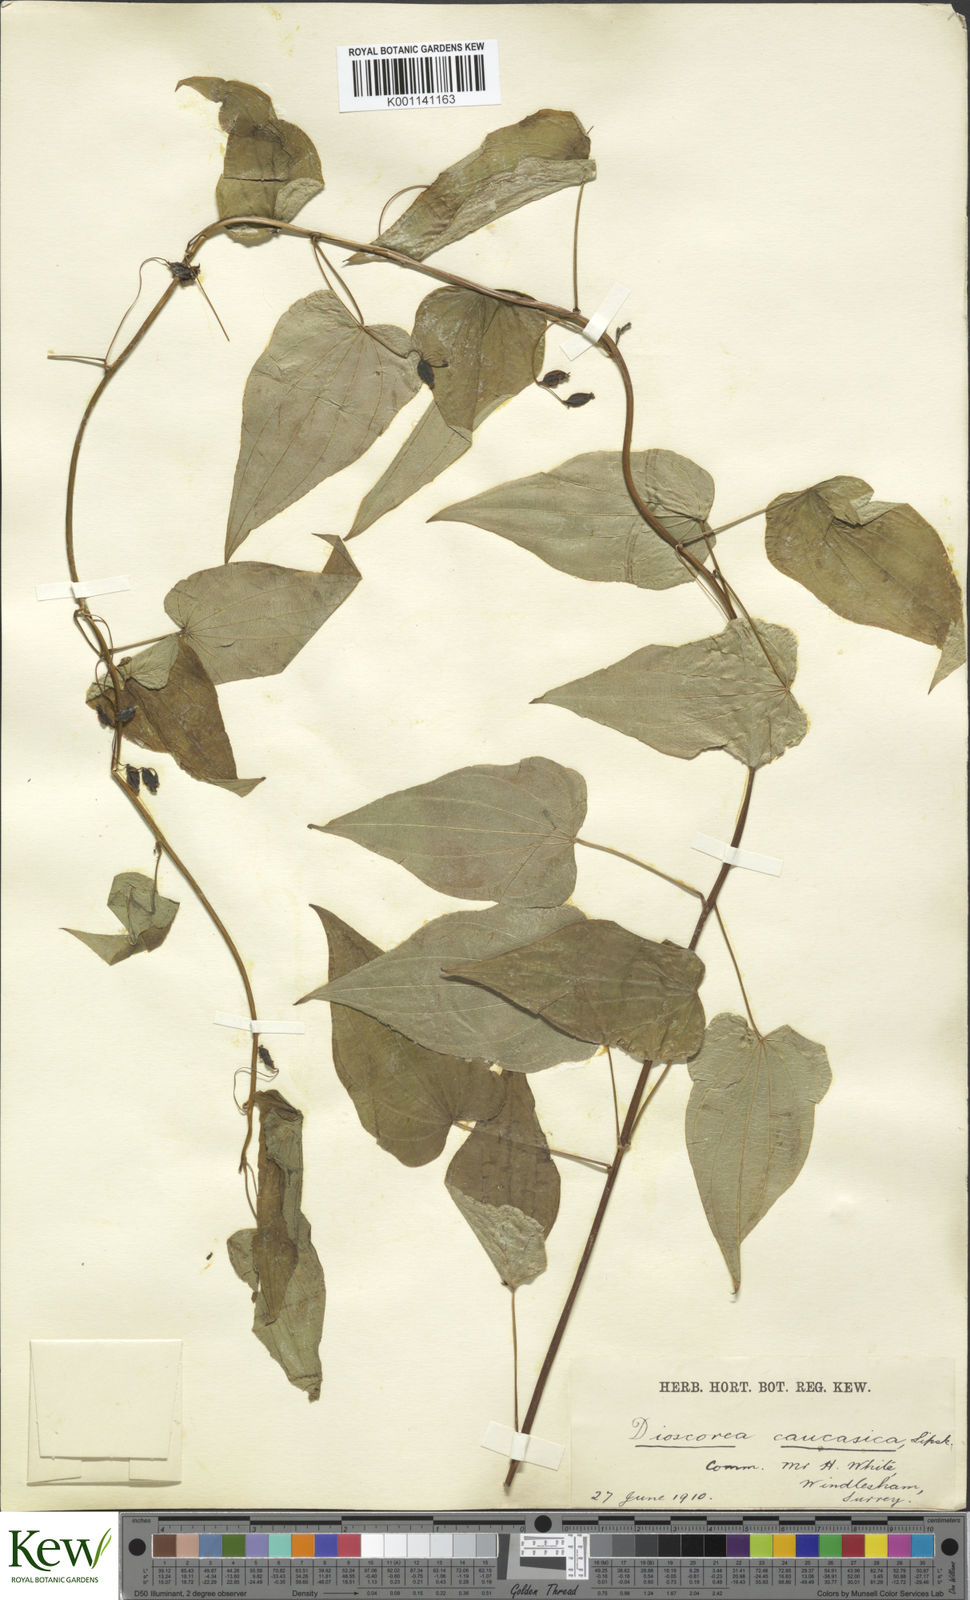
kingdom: Plantae
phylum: Tracheophyta
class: Liliopsida
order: Dioscoreales
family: Dioscoreaceae
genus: Dioscorea
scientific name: Dioscorea caucasica
